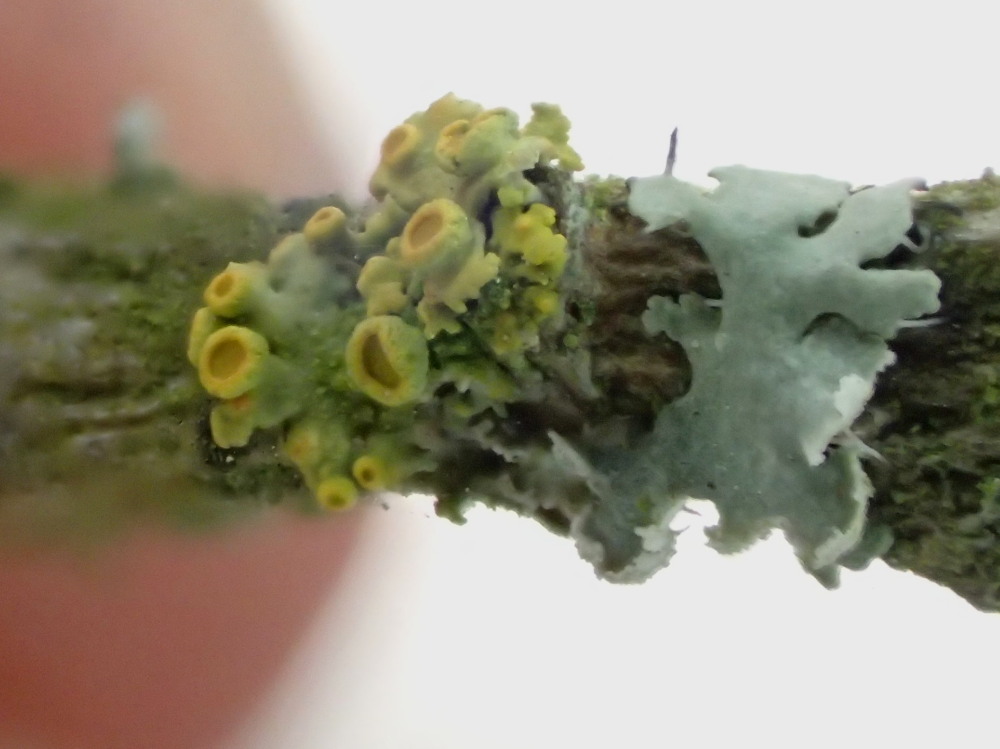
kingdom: Fungi
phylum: Ascomycota
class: Lecanoromycetes
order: Teloschistales
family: Teloschistaceae
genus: Polycauliona
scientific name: Polycauliona polycarpa
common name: mangefrugtet orangelav
